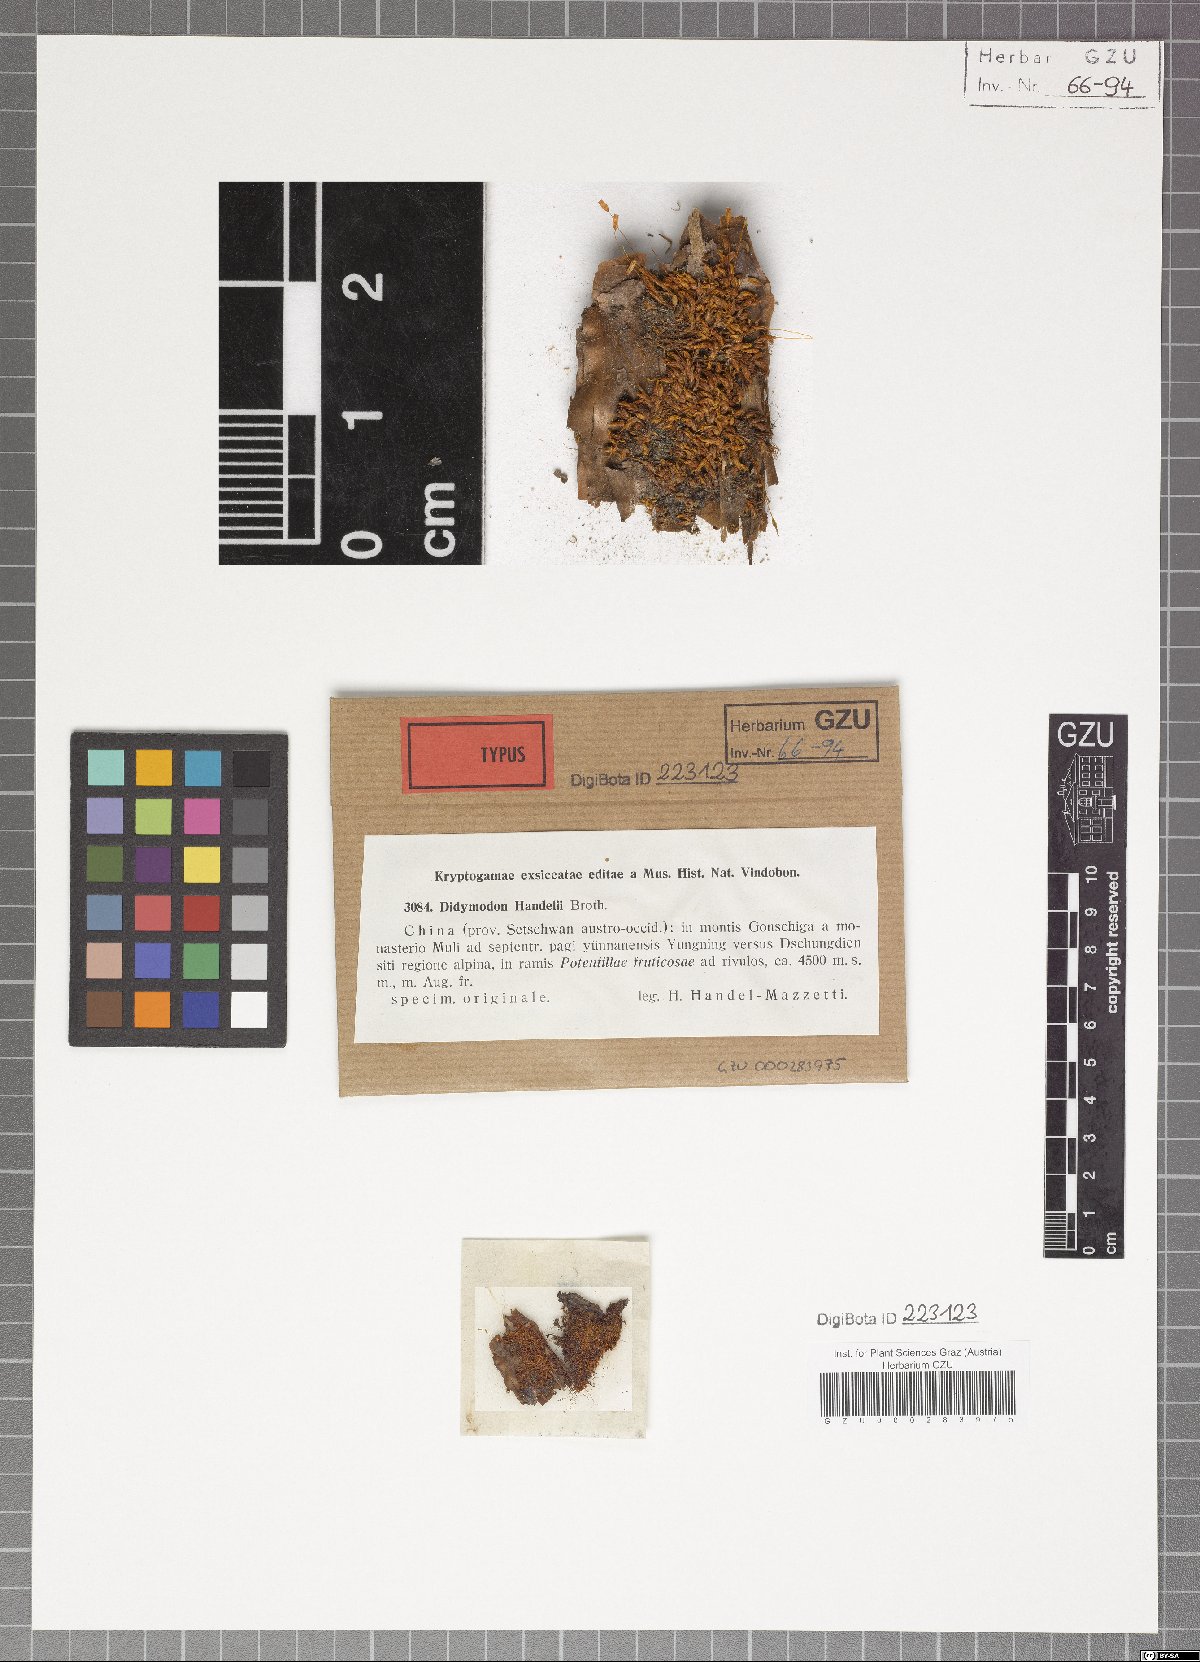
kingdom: Plantae
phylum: Bryophyta
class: Bryopsida
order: Pottiales
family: Pottiaceae
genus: Husnotiella
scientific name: Husnotiella rufidula
